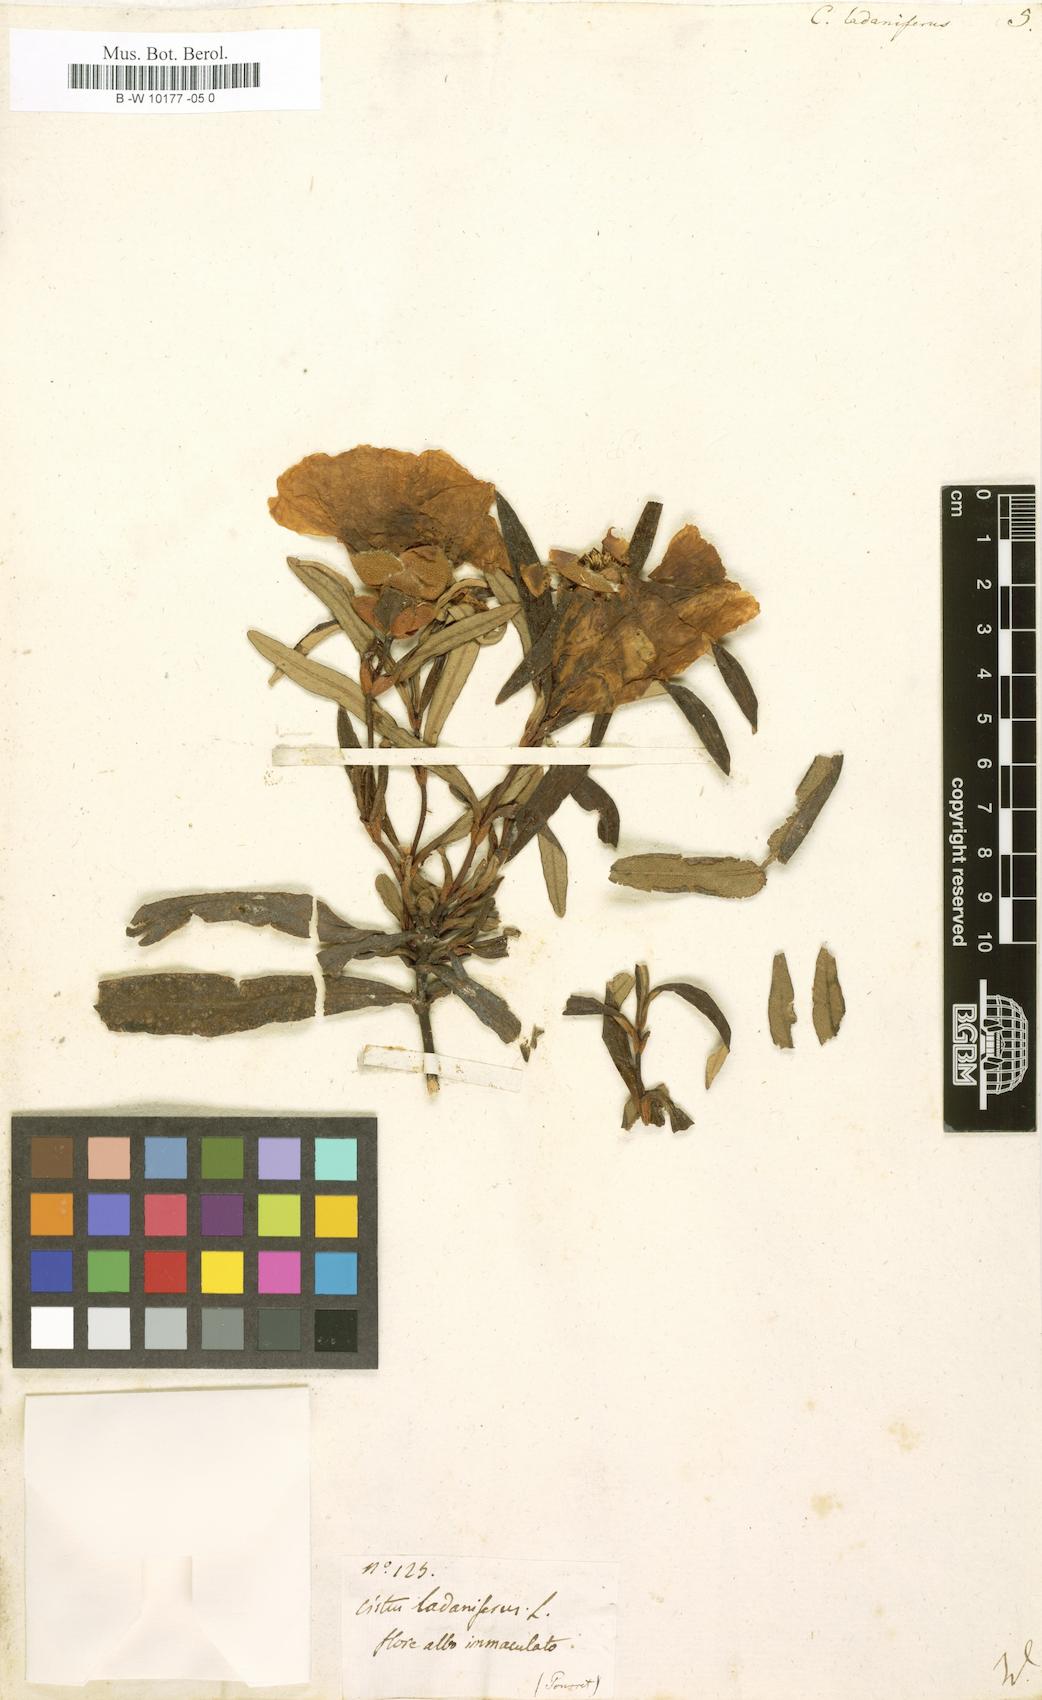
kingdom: Plantae
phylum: Tracheophyta
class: Magnoliopsida
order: Malvales
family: Cistaceae
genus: Cistus
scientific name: Cistus creticus
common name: Cretan rockrose
